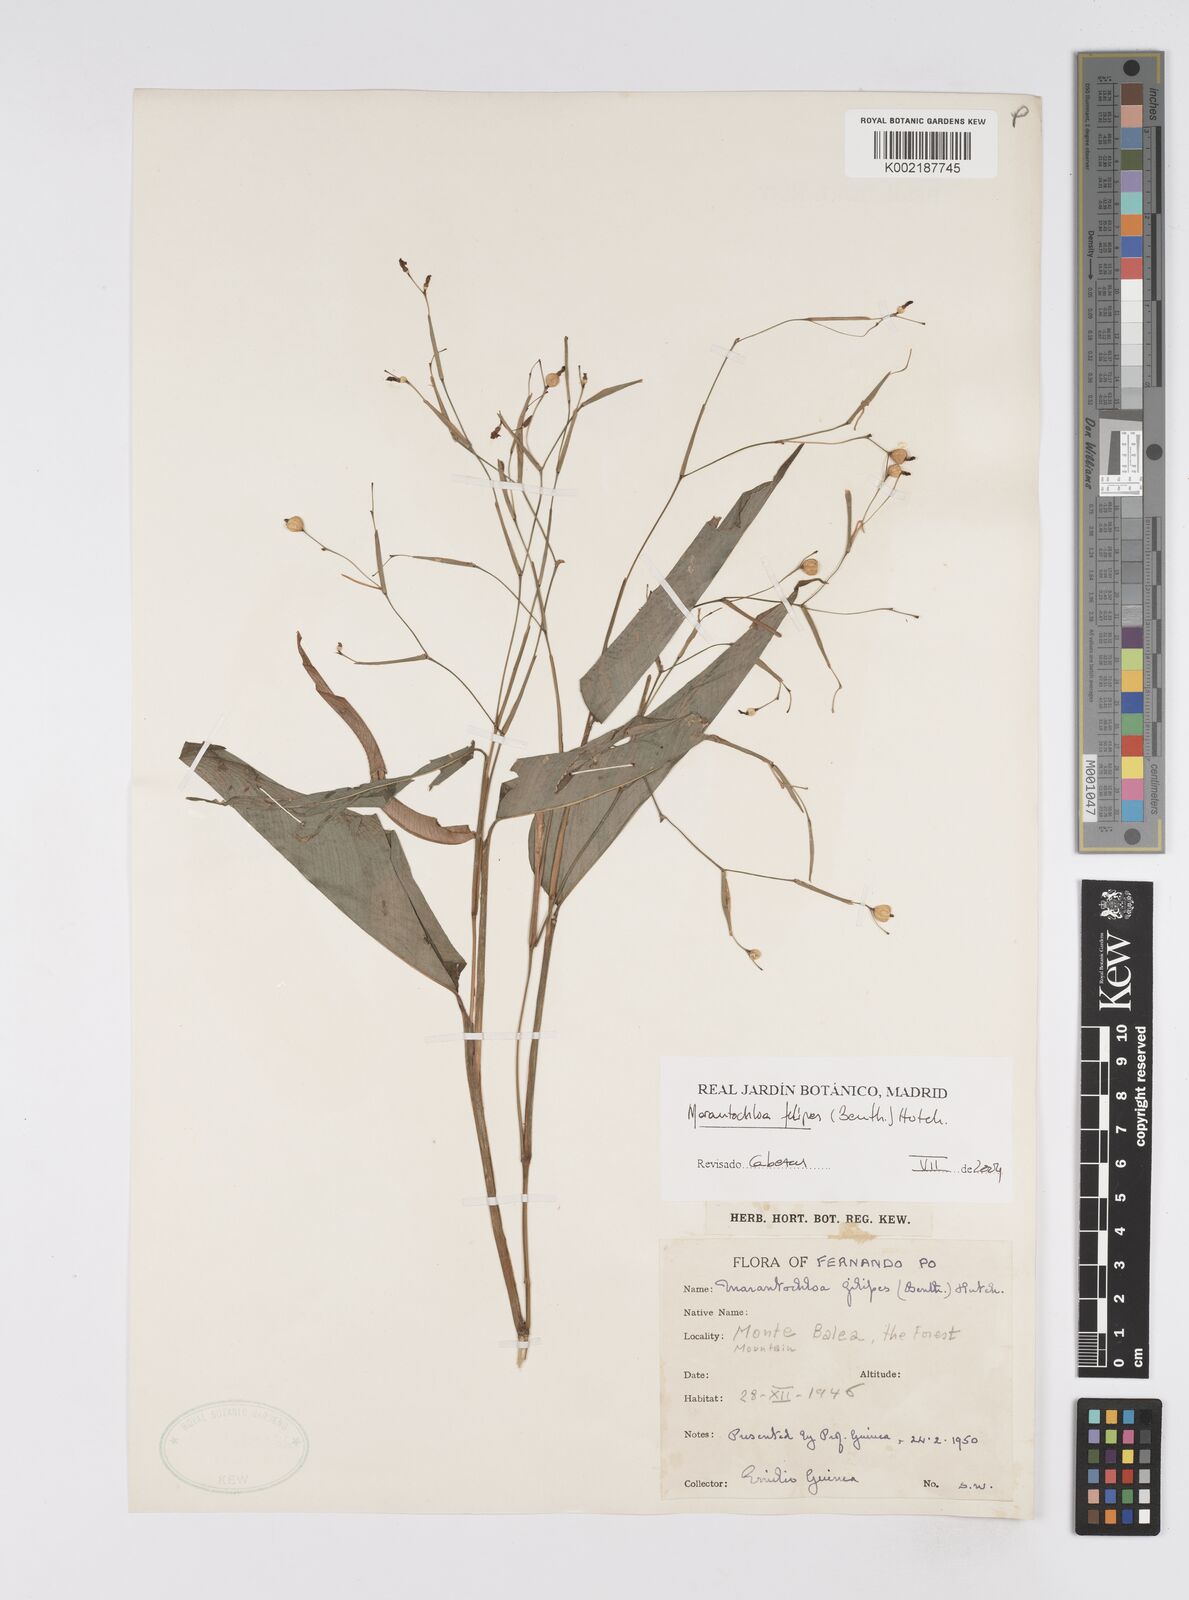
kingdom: Plantae
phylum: Tracheophyta
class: Liliopsida
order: Zingiberales
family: Marantaceae
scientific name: Marantaceae
